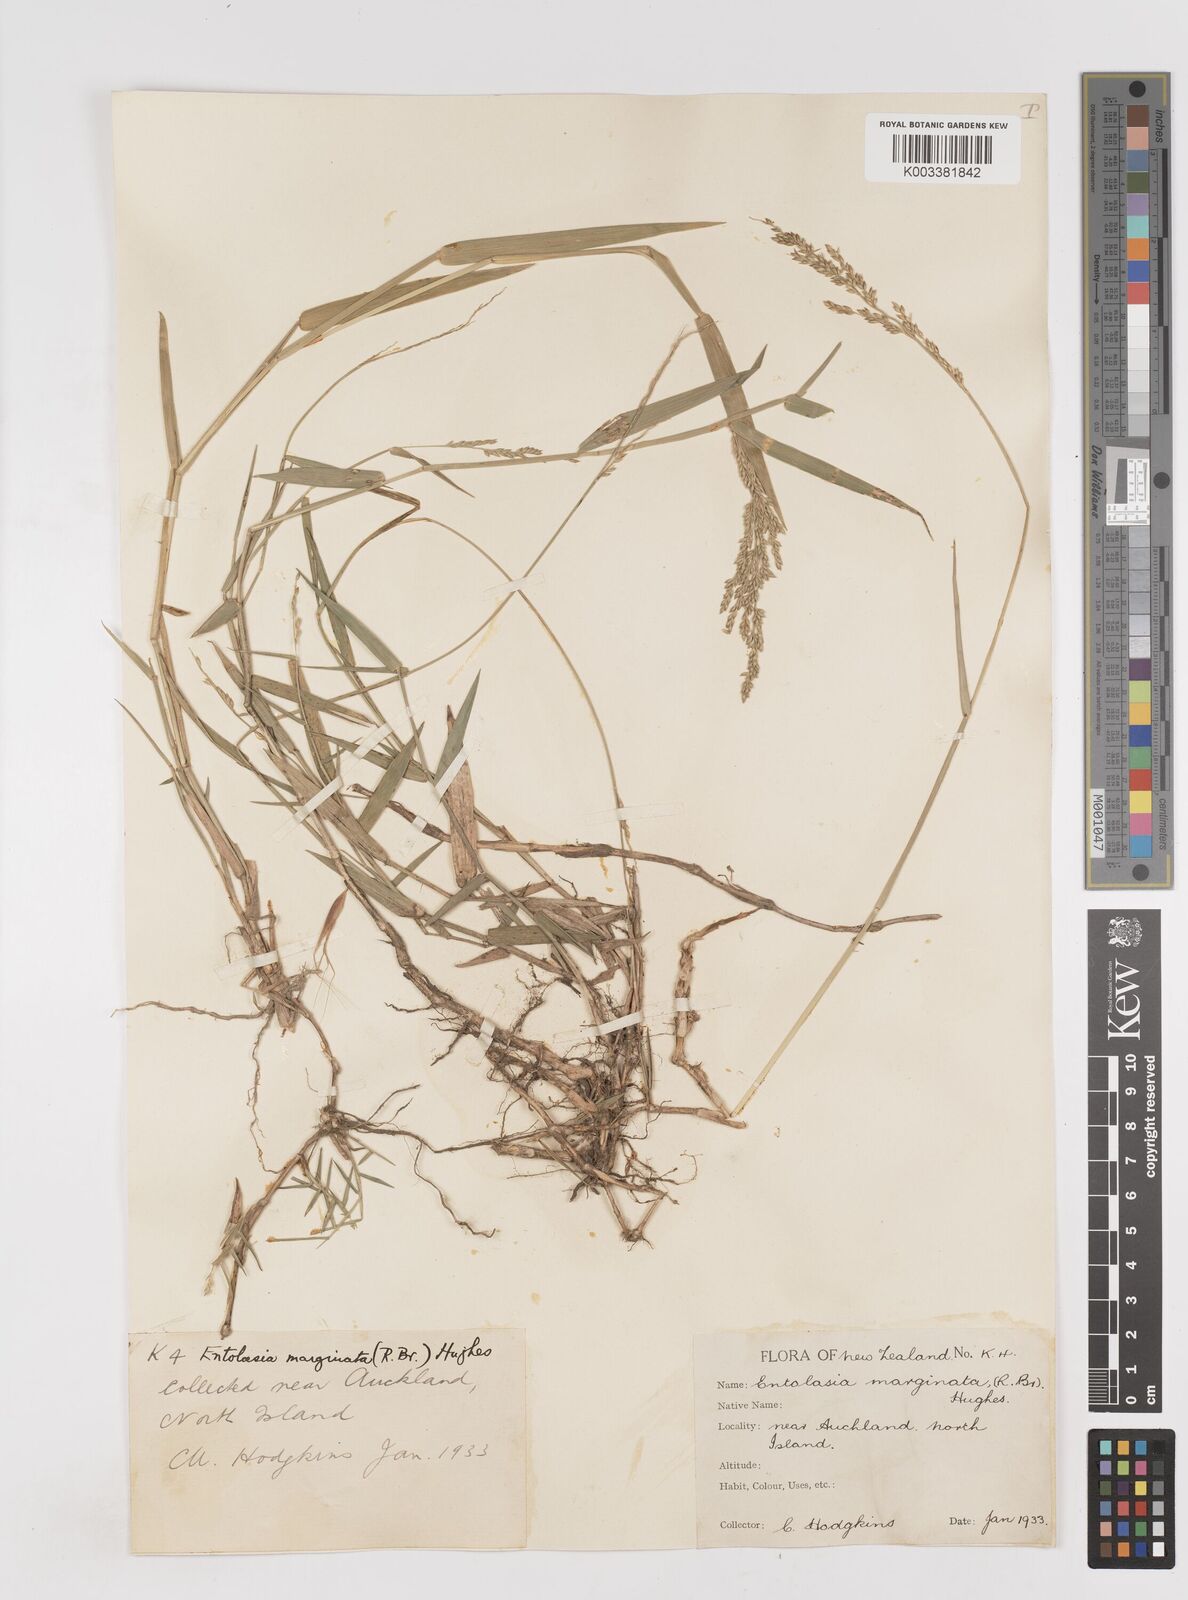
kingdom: Plantae
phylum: Tracheophyta
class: Liliopsida
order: Poales
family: Poaceae
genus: Entolasia
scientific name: Entolasia marginata
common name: Australian panicgrass
